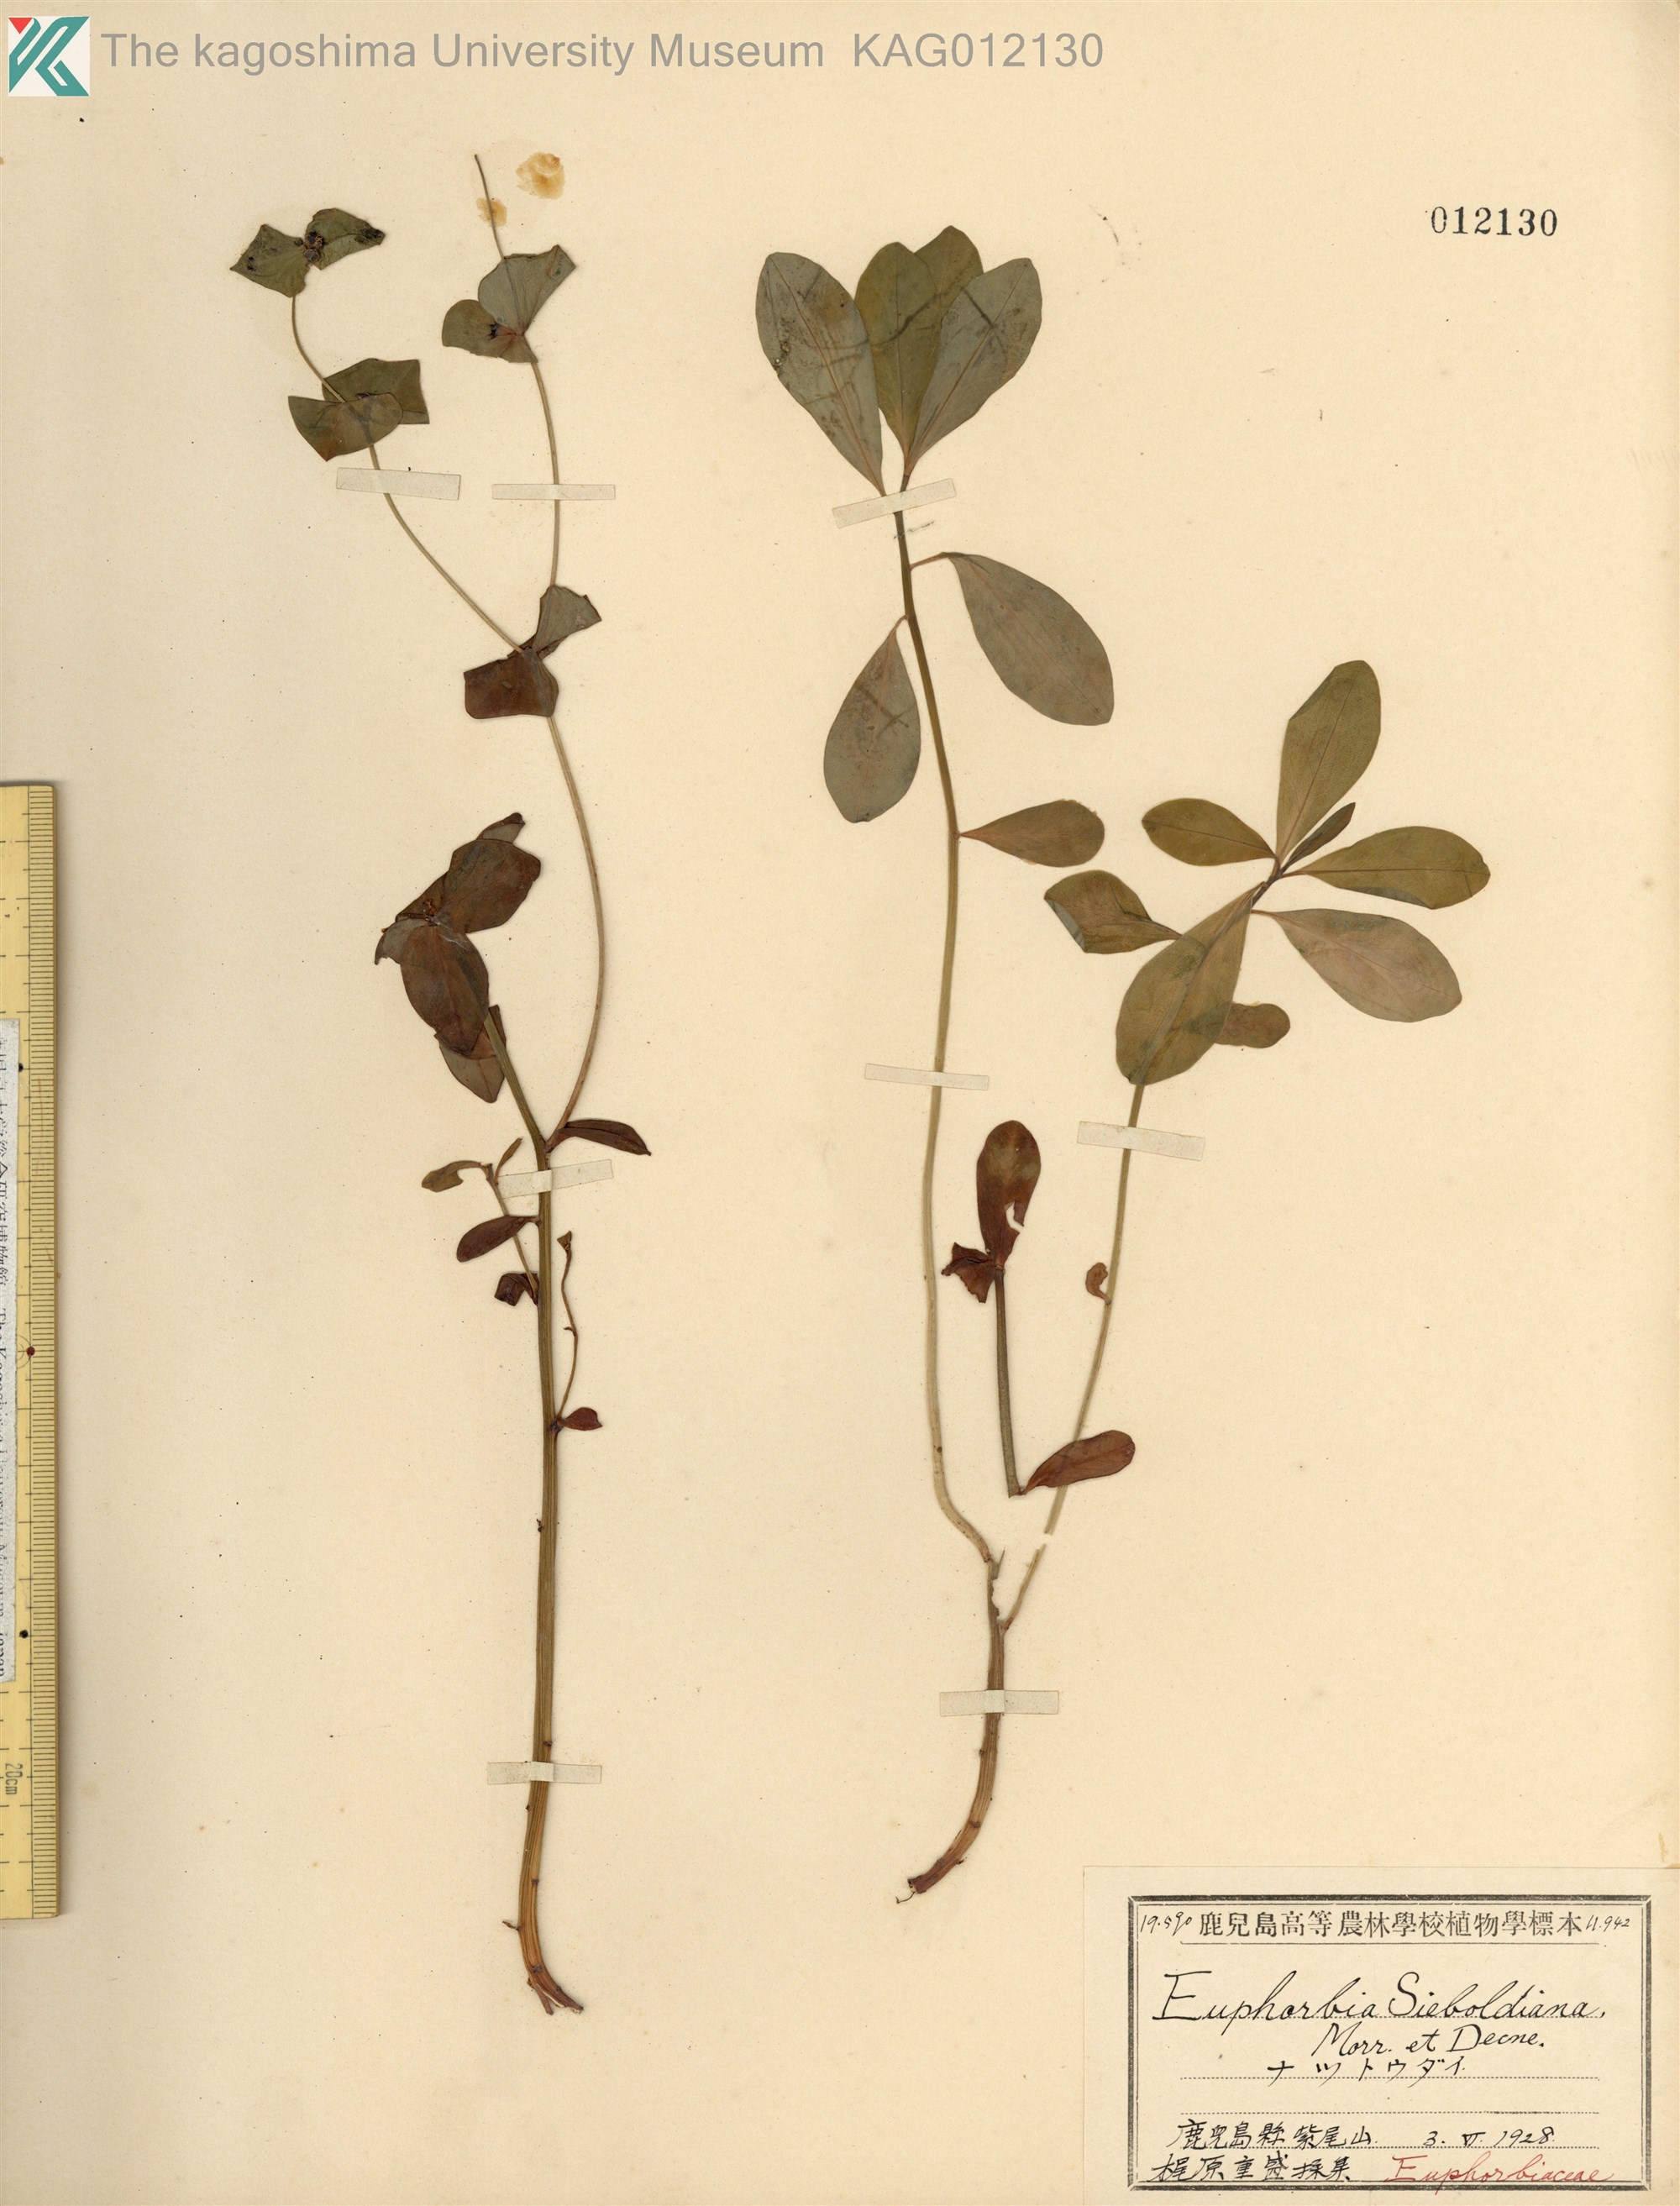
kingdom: Plantae
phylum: Tracheophyta
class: Magnoliopsida
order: Malpighiales
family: Euphorbiaceae
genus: Euphorbia
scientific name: Euphorbia sieboldiana
